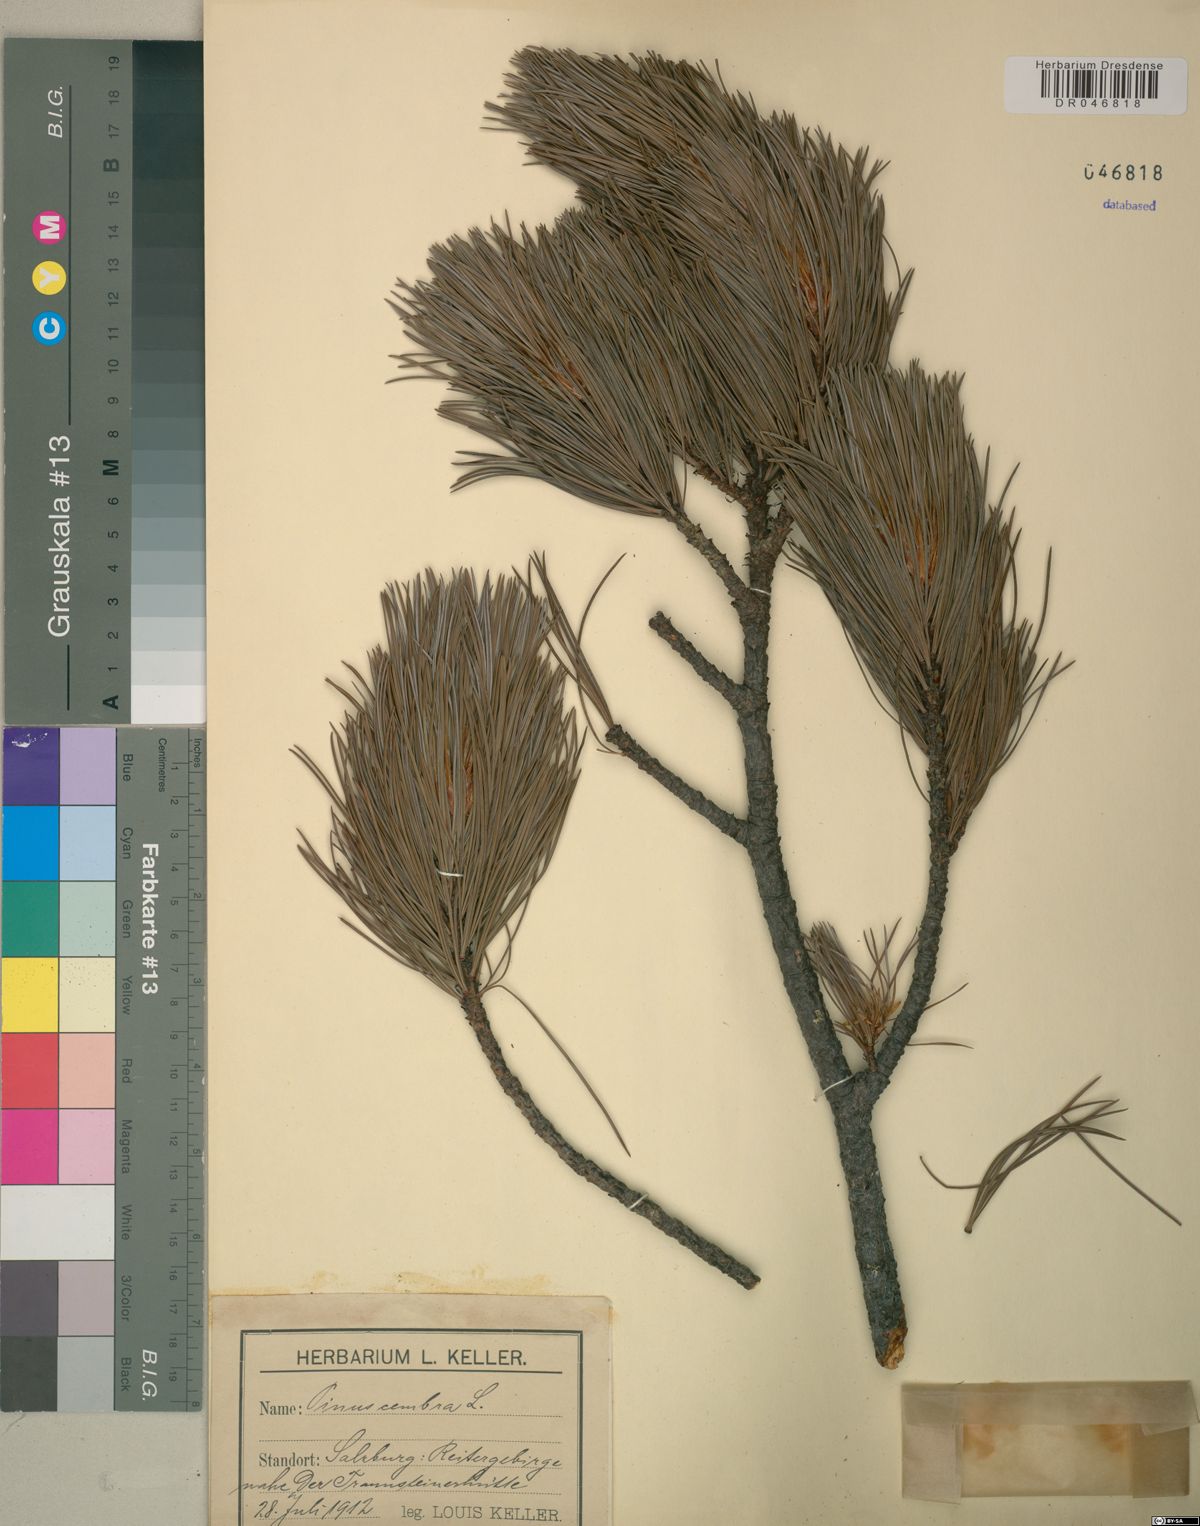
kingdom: Plantae
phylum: Tracheophyta
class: Pinopsida
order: Pinales
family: Pinaceae
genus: Pinus
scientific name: Pinus cembra
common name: Arolla pine
